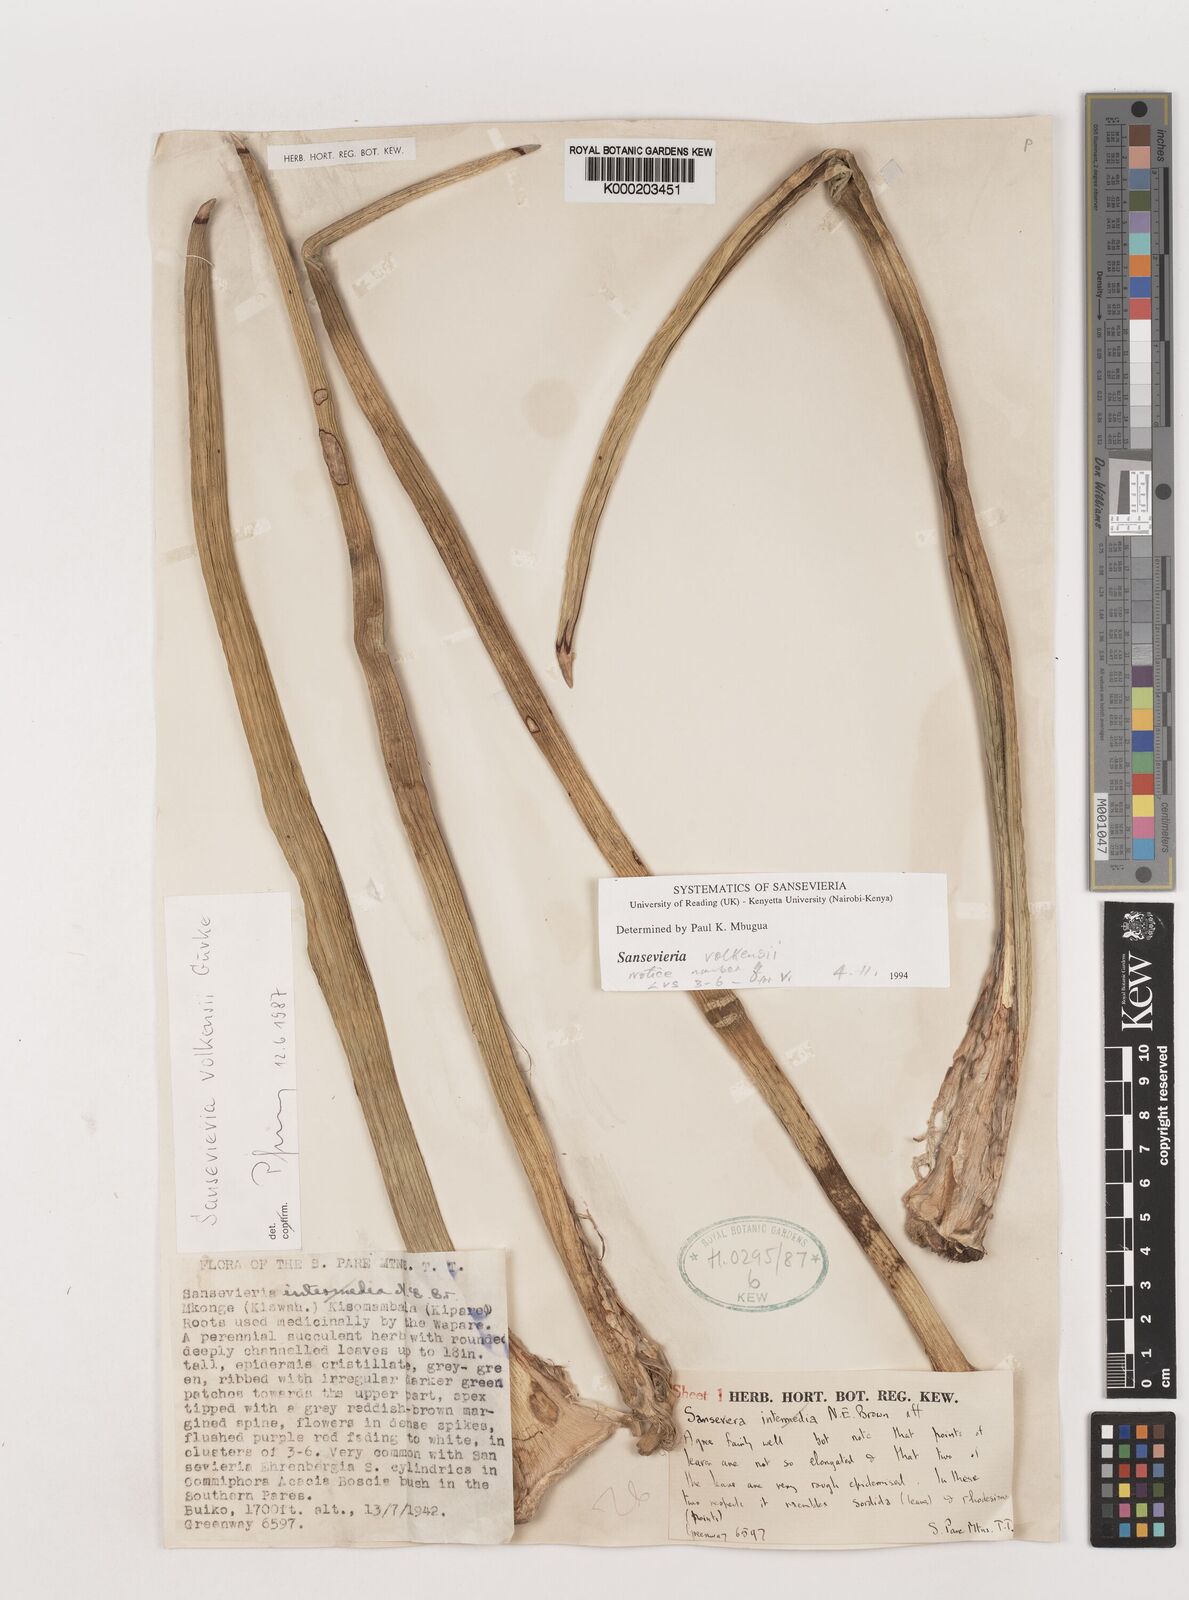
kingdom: Plantae
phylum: Tracheophyta
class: Liliopsida
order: Asparagales
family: Asparagaceae
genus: Dracaena
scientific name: Dracaena volkensii
